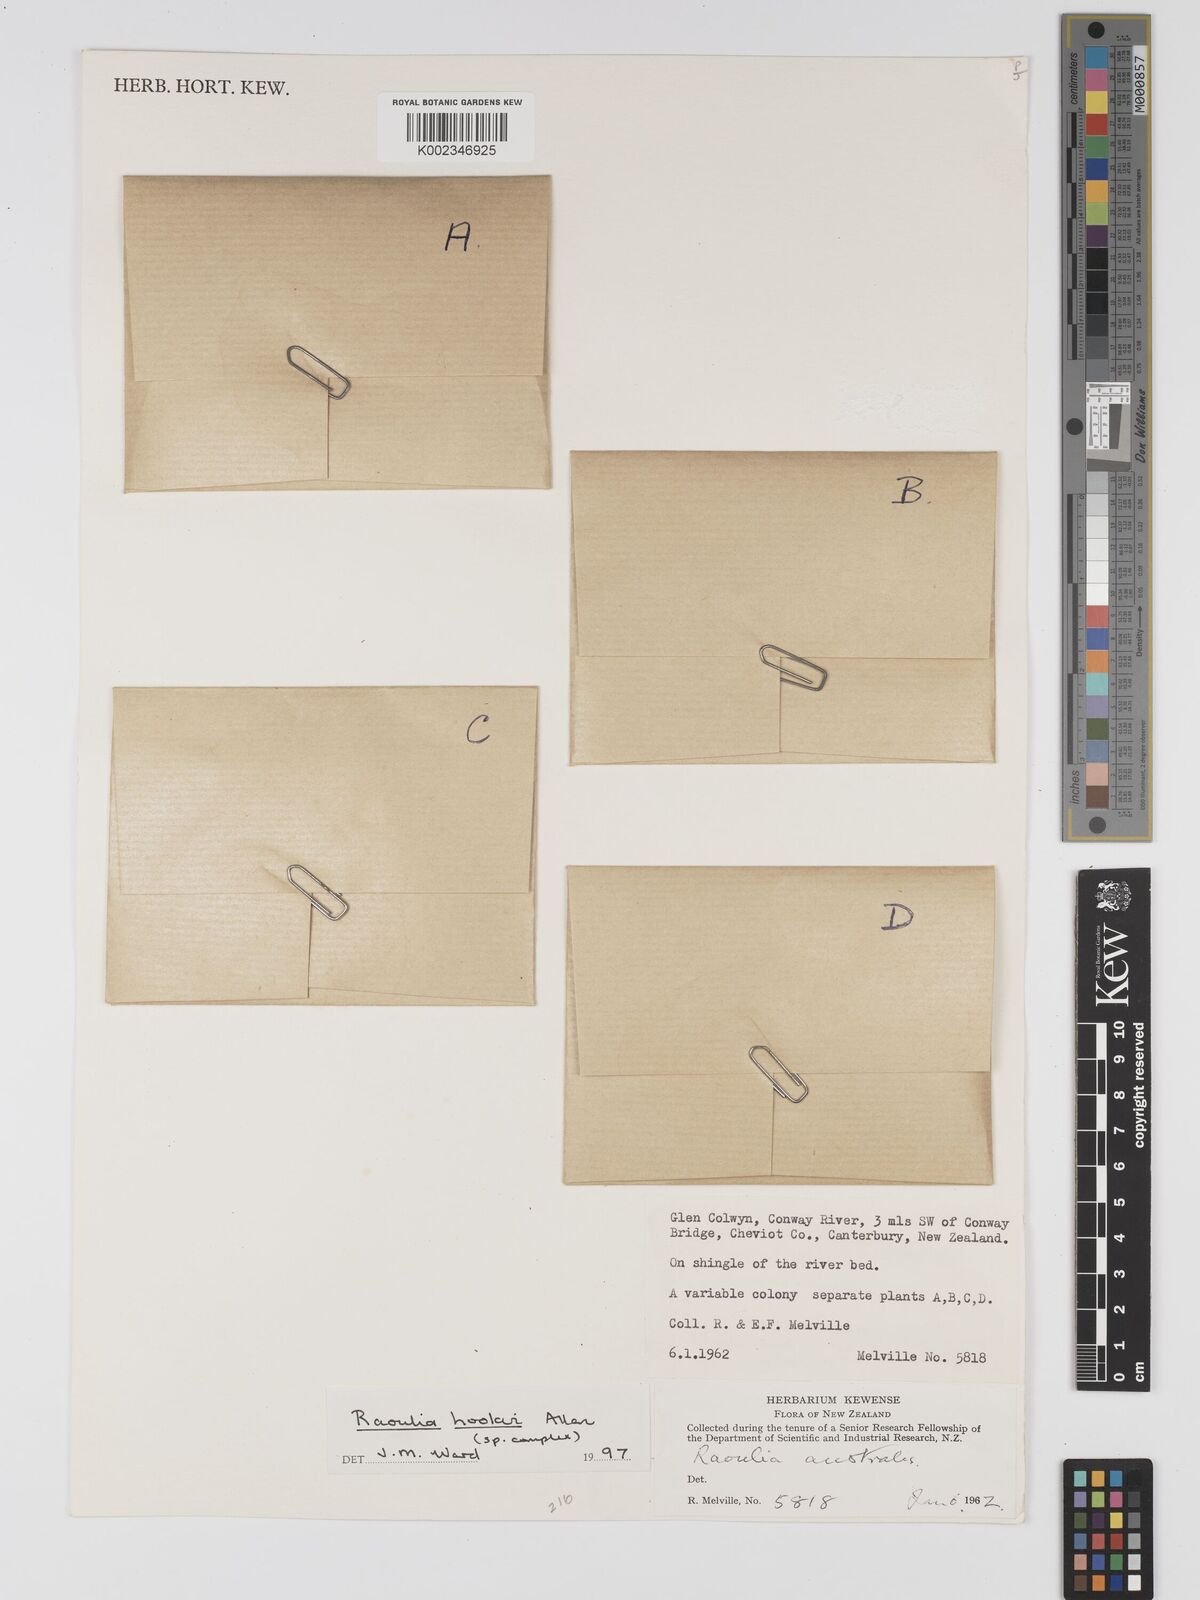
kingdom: Plantae
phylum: Tracheophyta
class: Magnoliopsida
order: Asterales
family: Asteraceae
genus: Raoulia
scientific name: Raoulia hookeri
